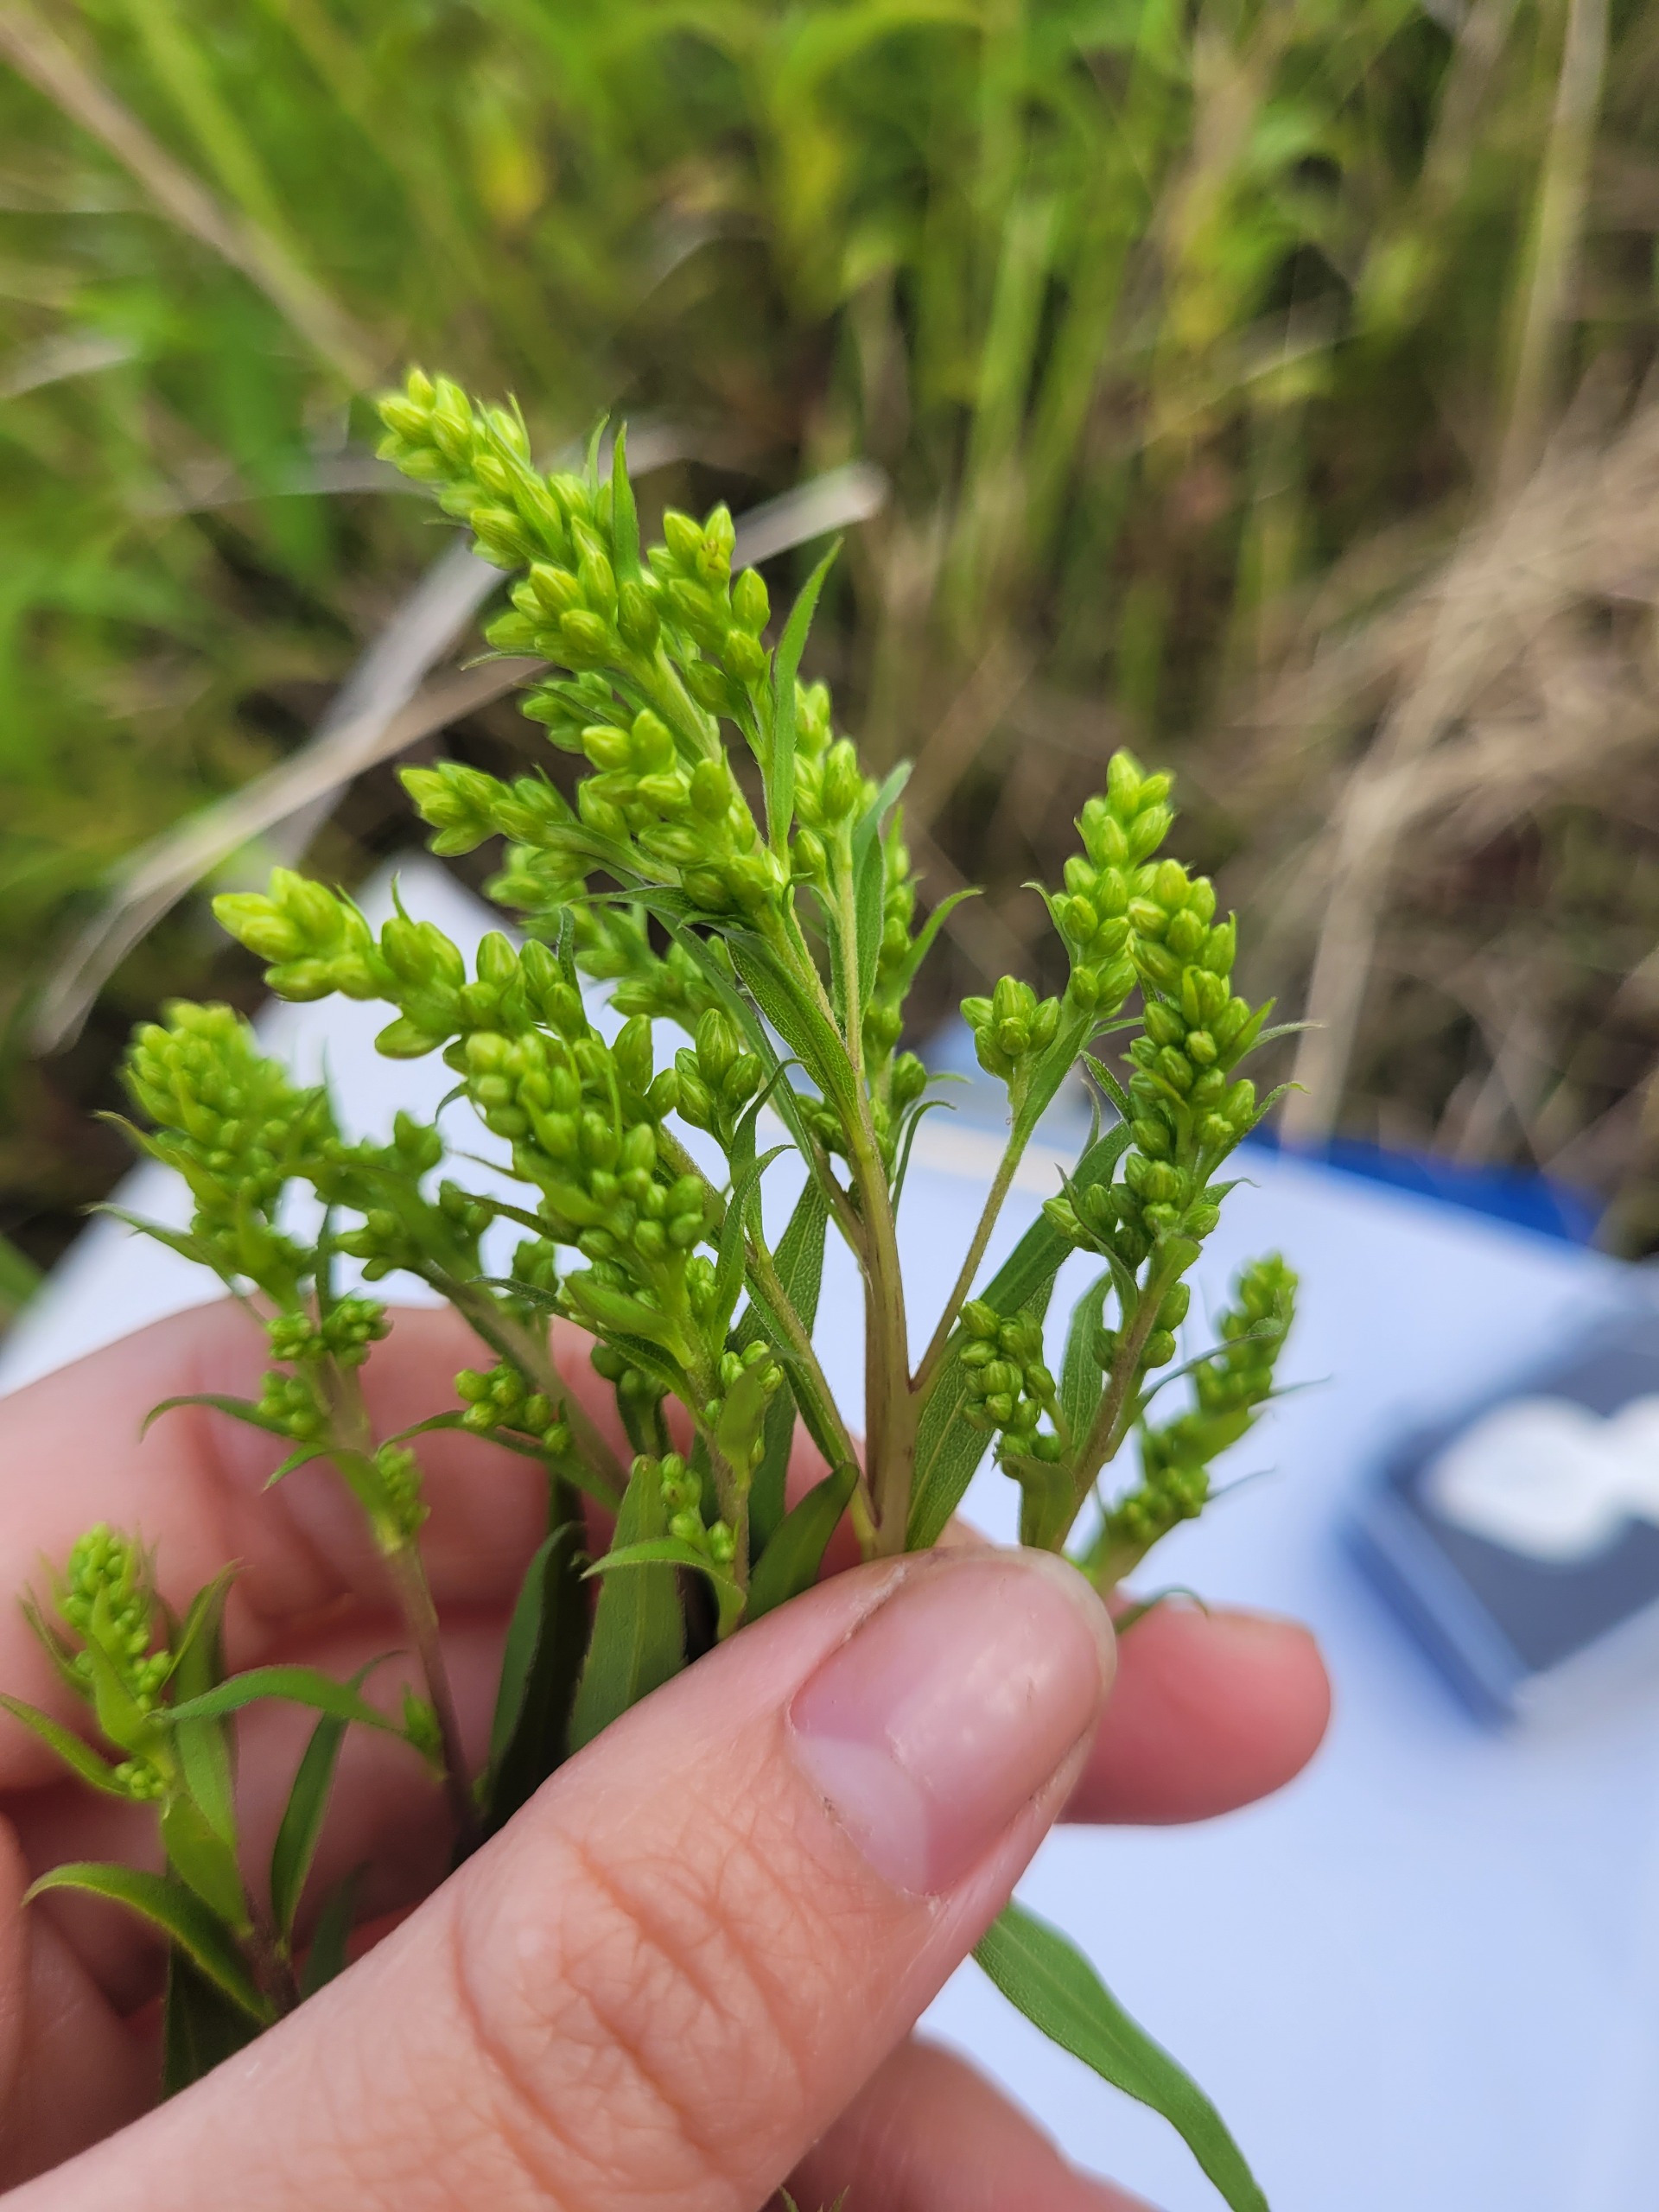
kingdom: Plantae
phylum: Tracheophyta
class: Magnoliopsida
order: Asterales
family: Asteraceae
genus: Solidago
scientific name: Solidago gigantea
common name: Sildig gyldenris
